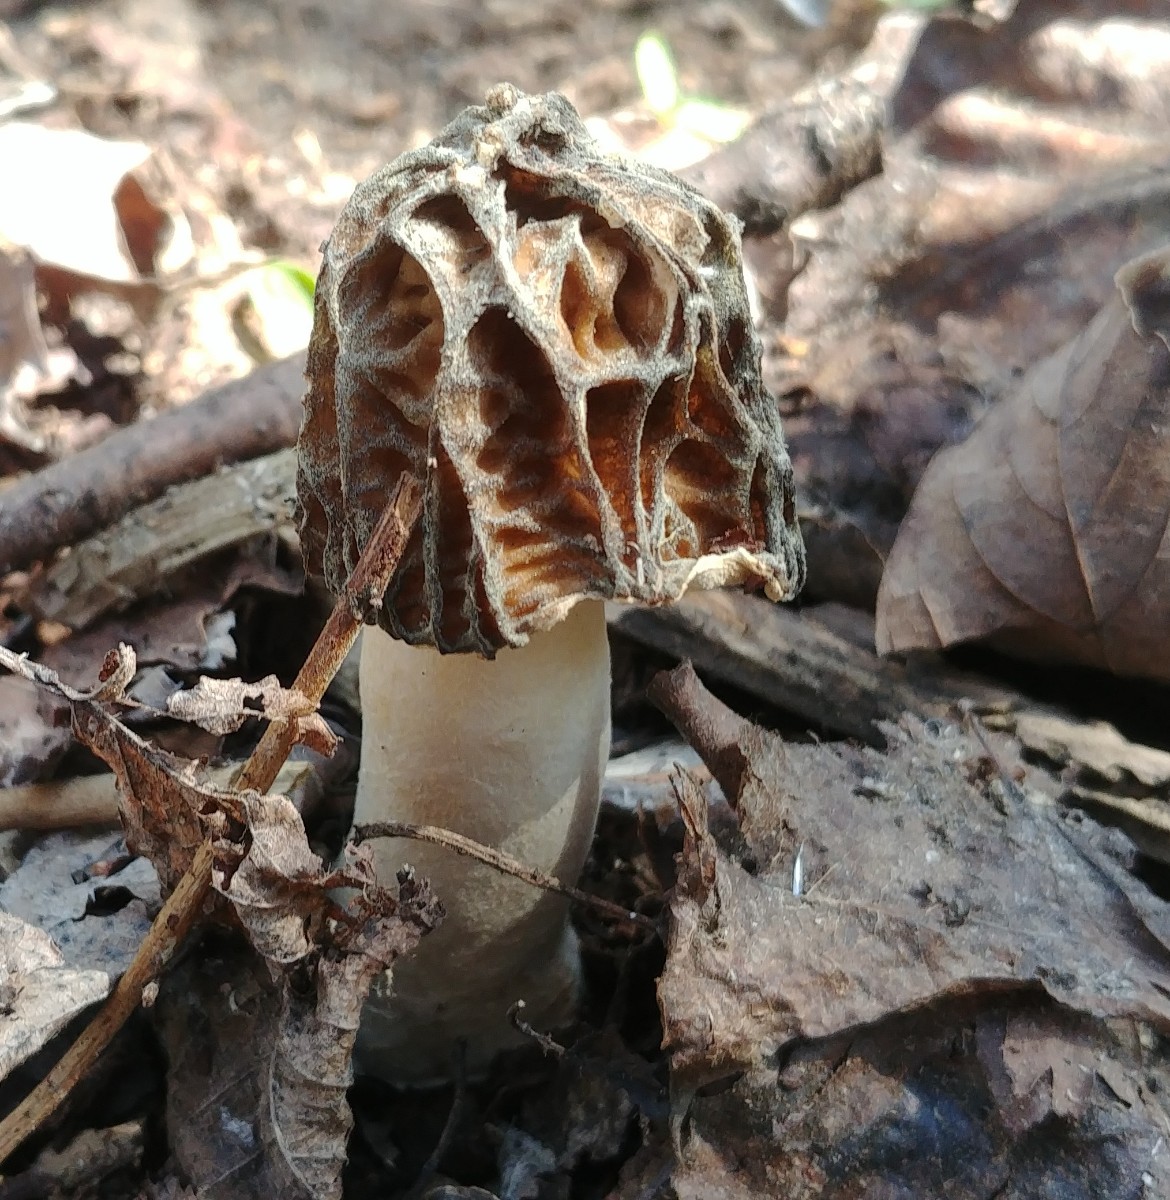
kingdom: Fungi
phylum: Ascomycota
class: Pezizomycetes
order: Pezizales
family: Morchellaceae
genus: Verpa
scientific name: Verpa bohemica
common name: rynket klokkemorkel
